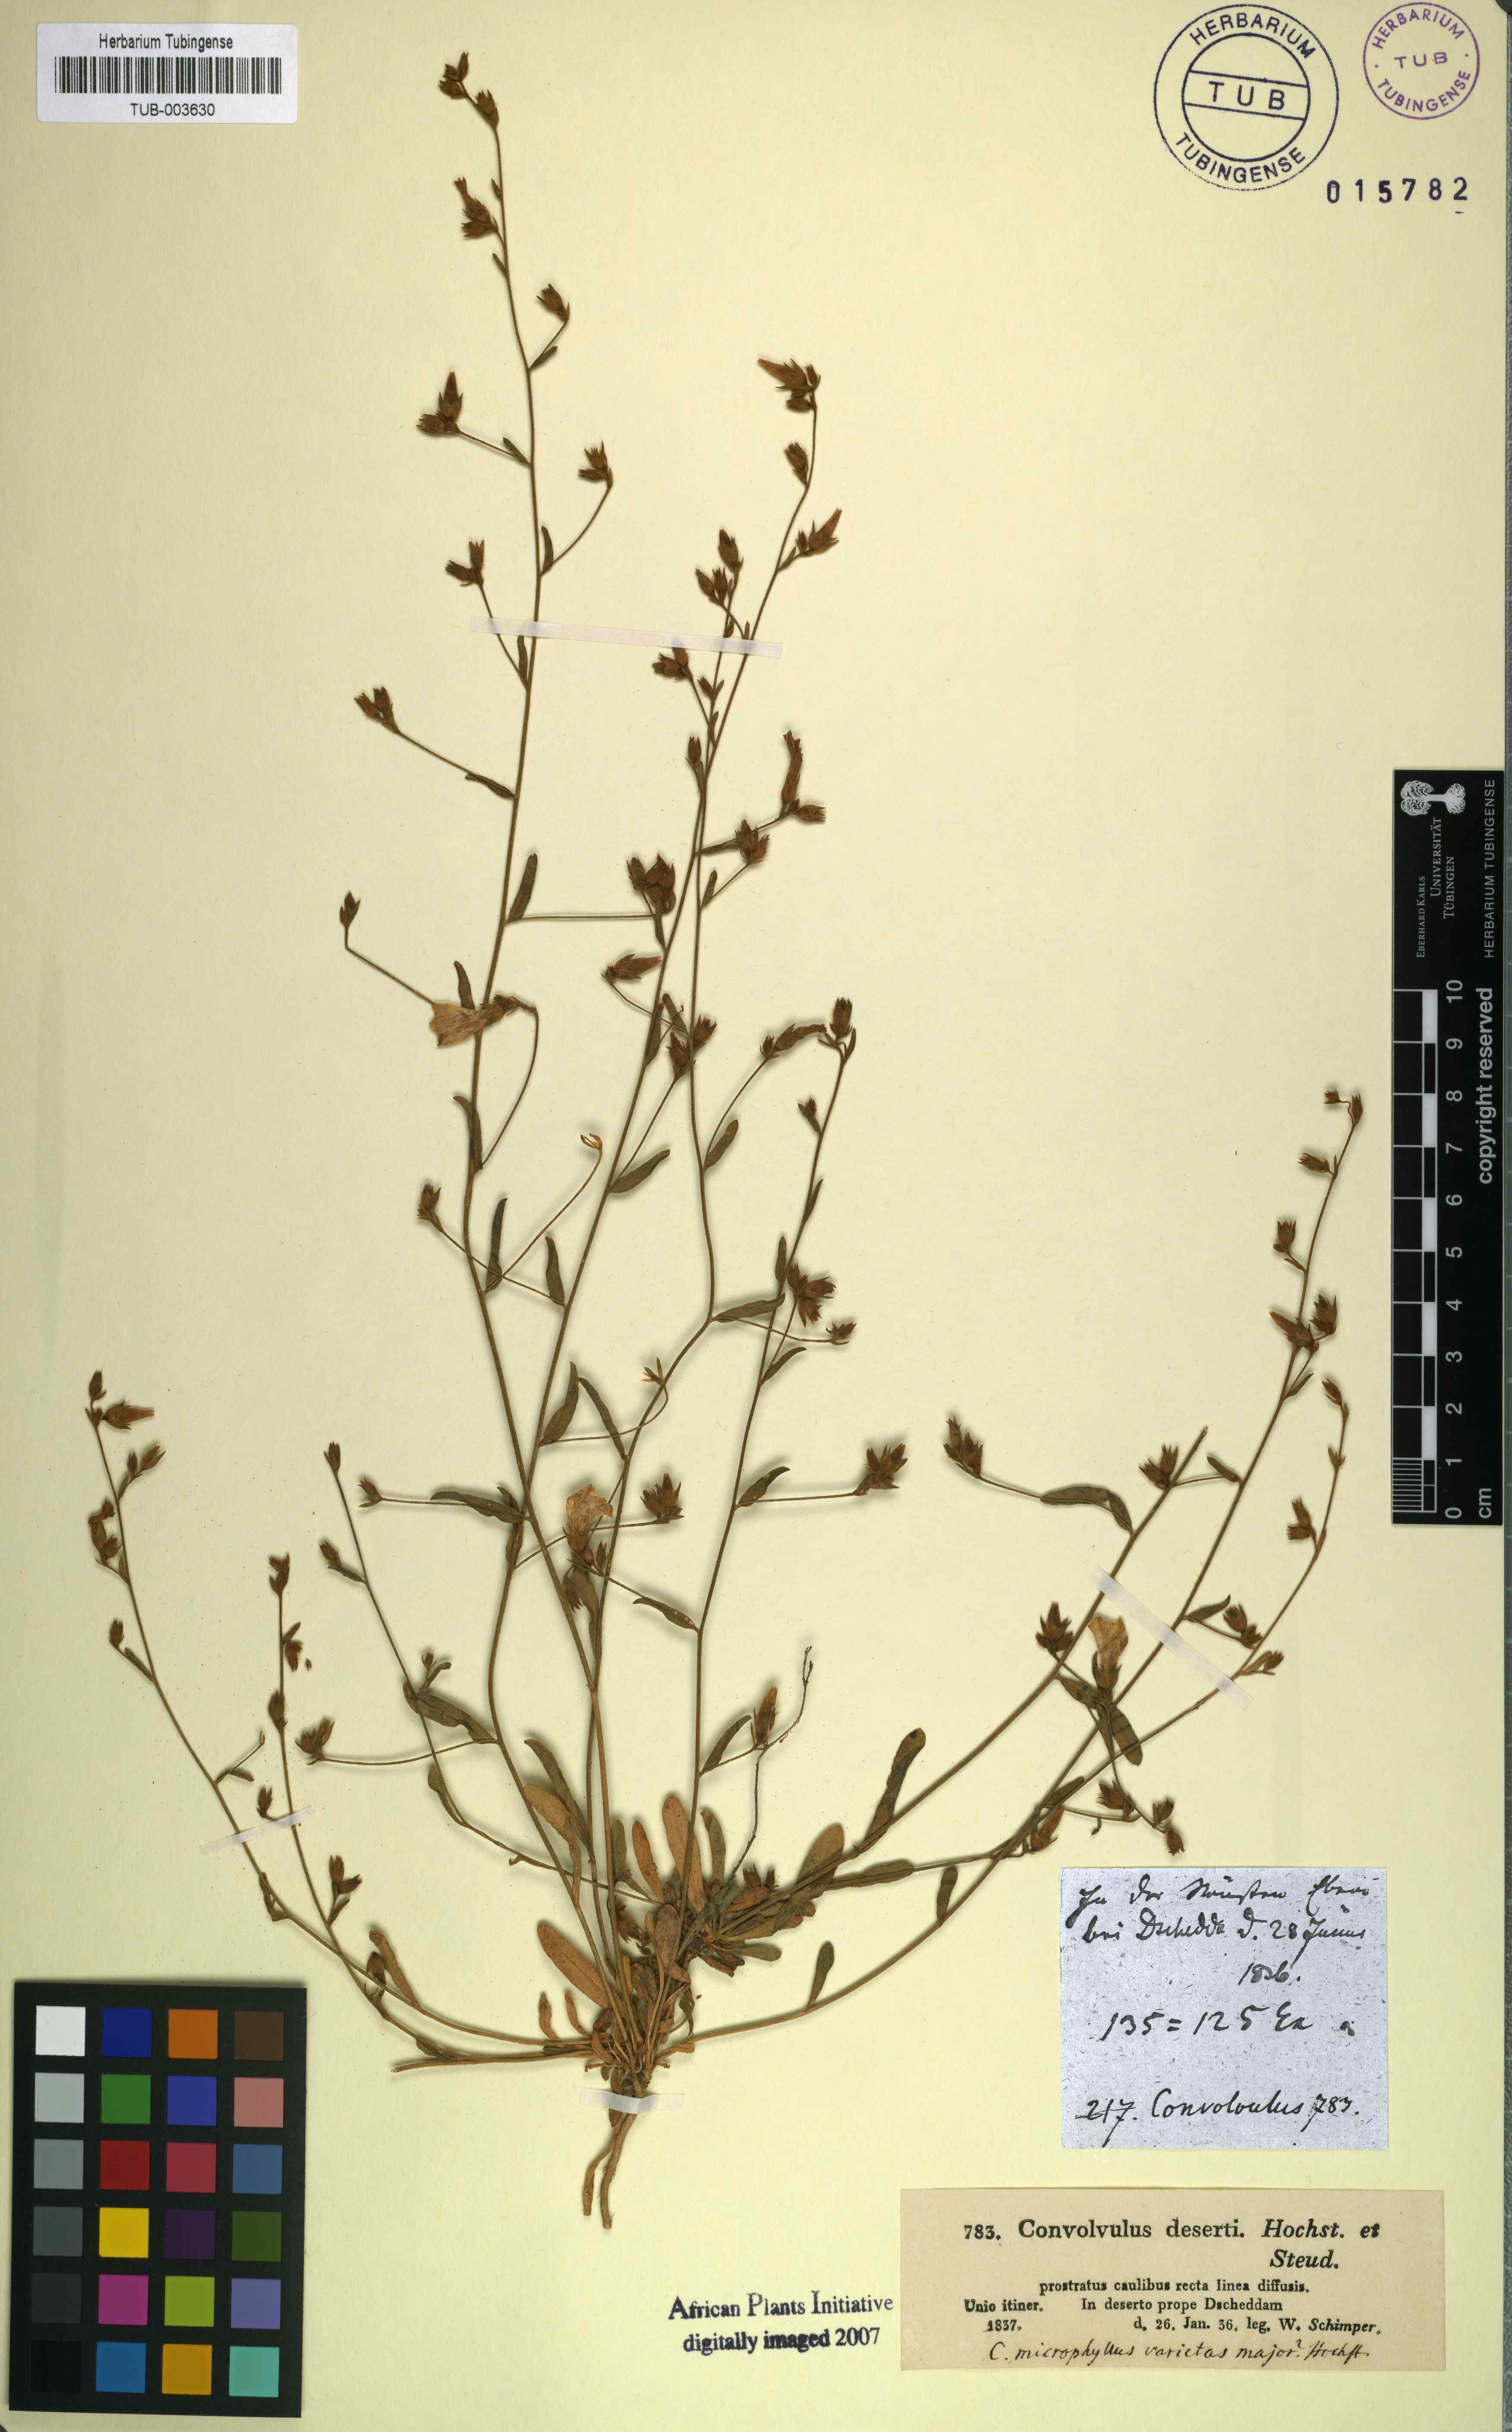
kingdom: Plantae
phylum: Tracheophyta
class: Magnoliopsida
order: Solanales
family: Convolvulaceae
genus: Convolvulus
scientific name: Convolvulus prostratus
